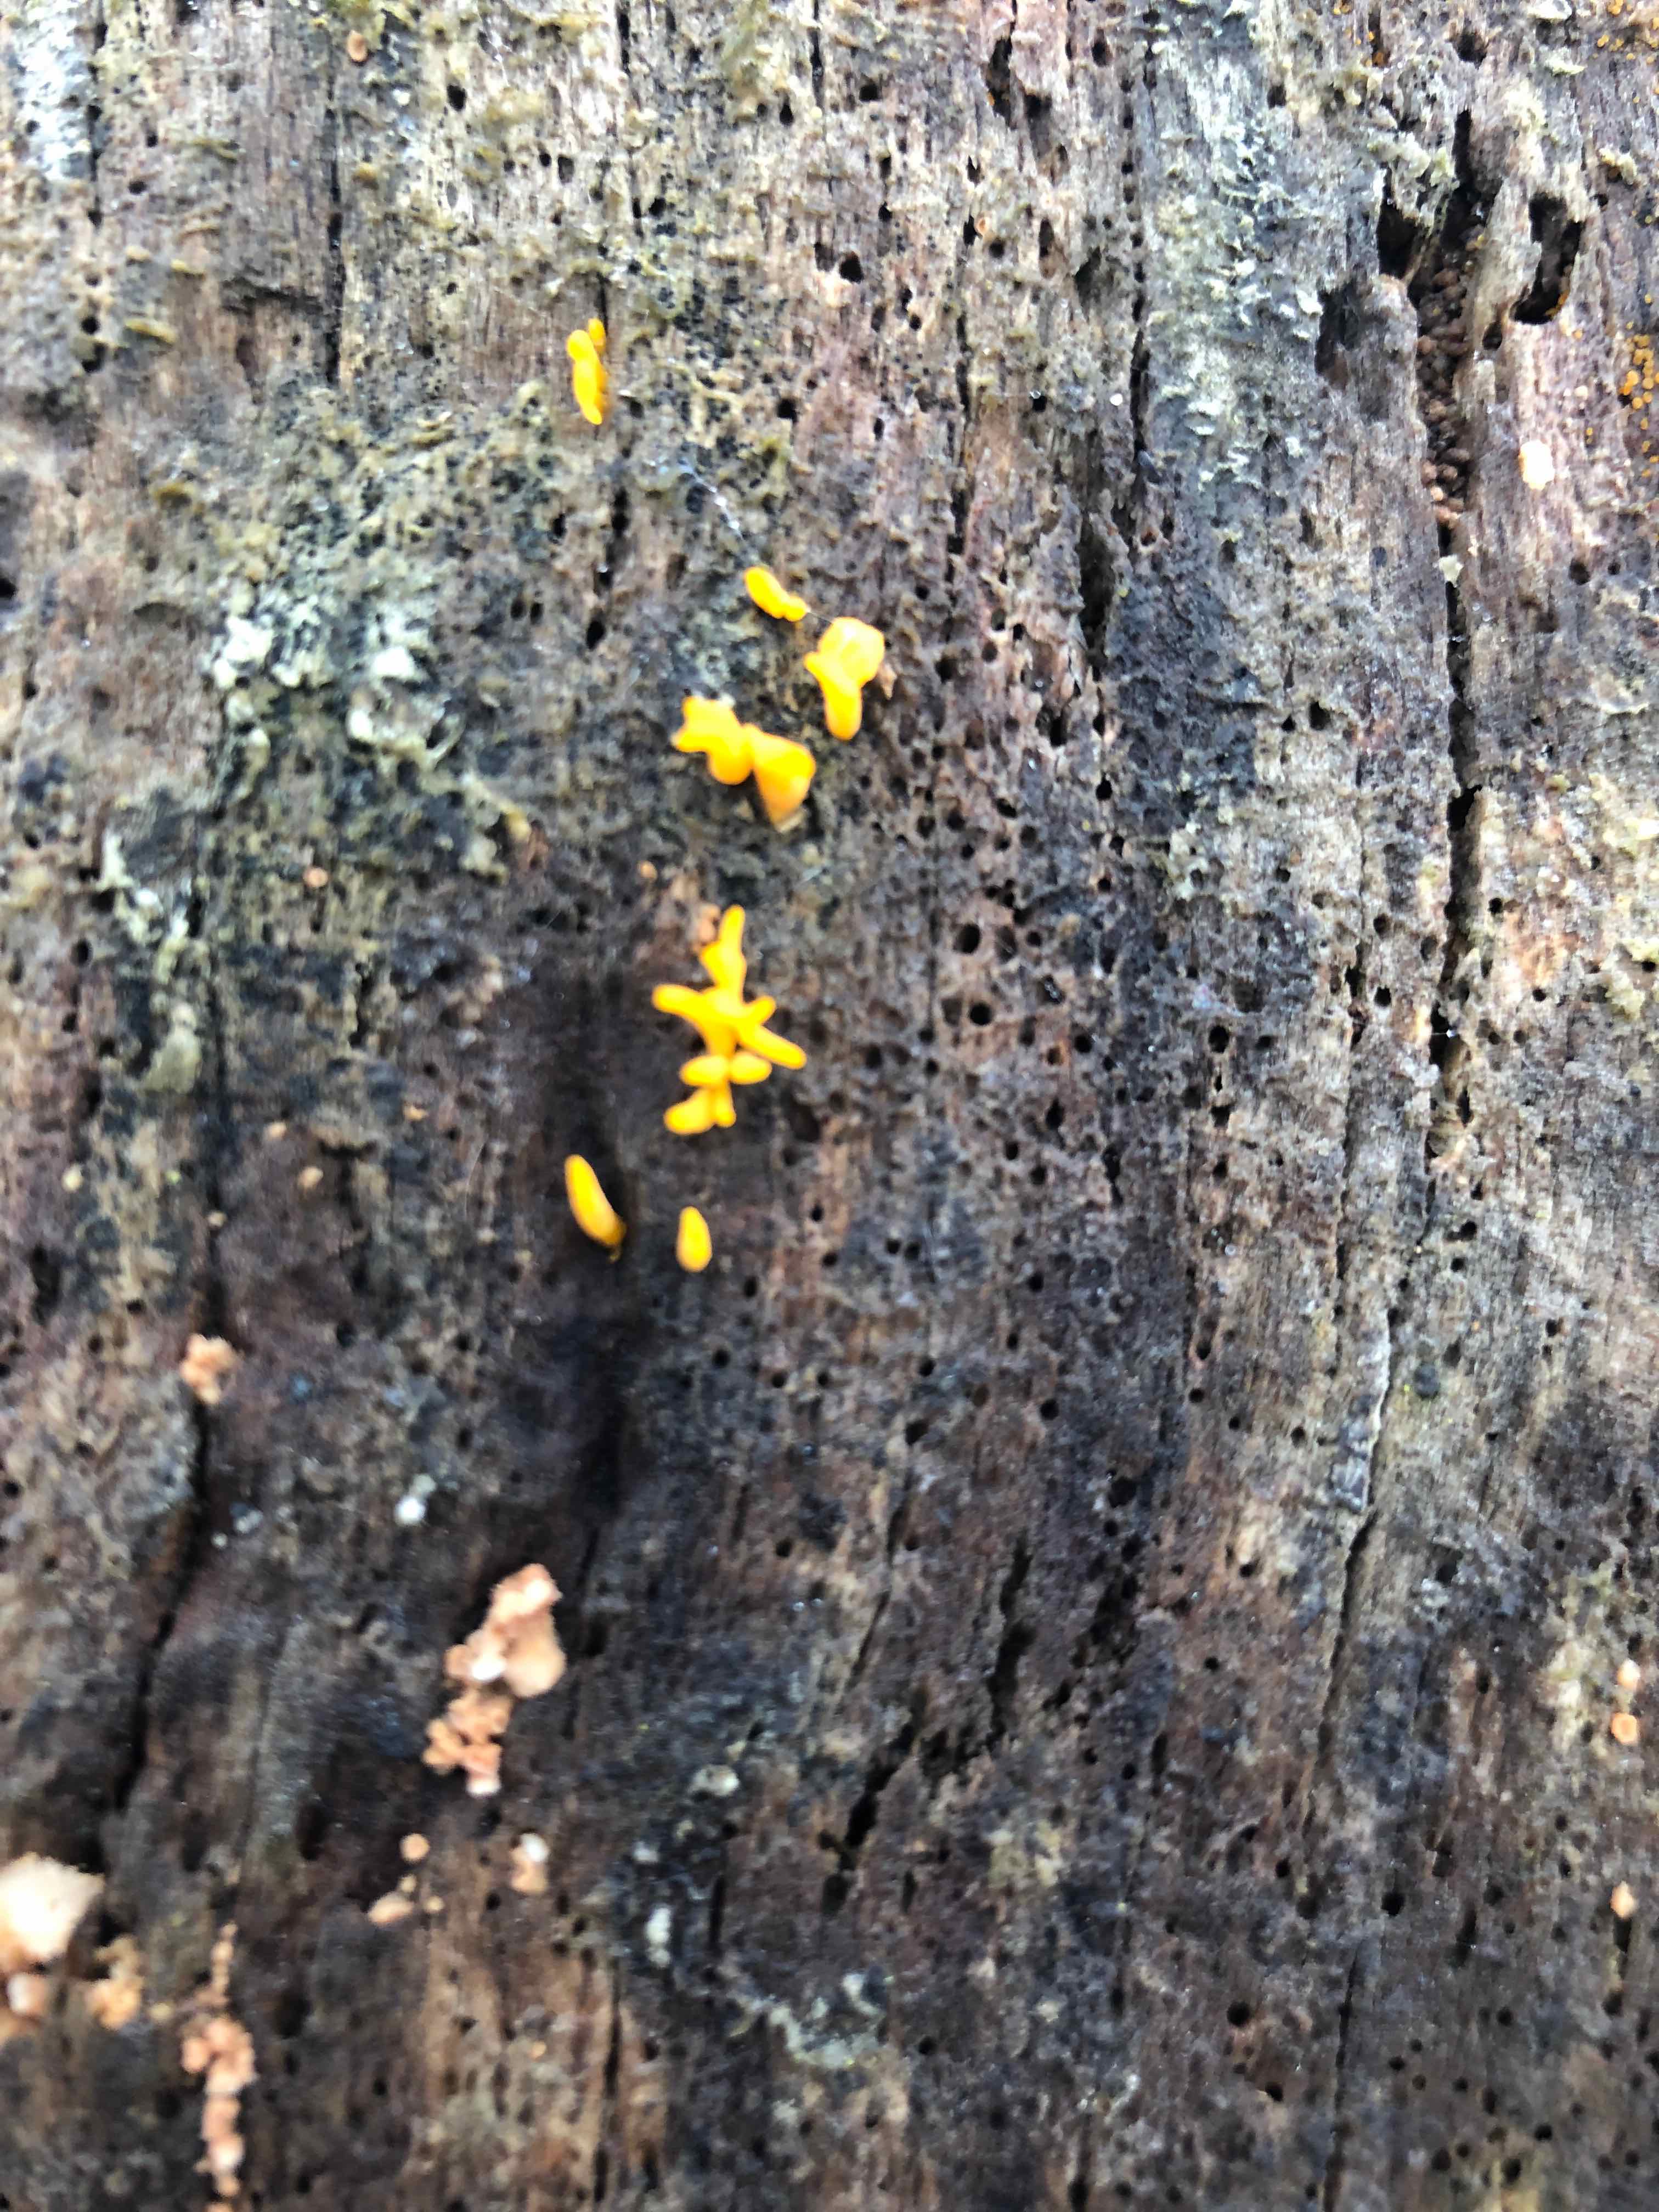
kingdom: Fungi
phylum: Basidiomycota
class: Dacrymycetes
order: Dacrymycetales
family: Dacrymycetaceae
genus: Calocera
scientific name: Calocera cornea
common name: liden guldgaffel
